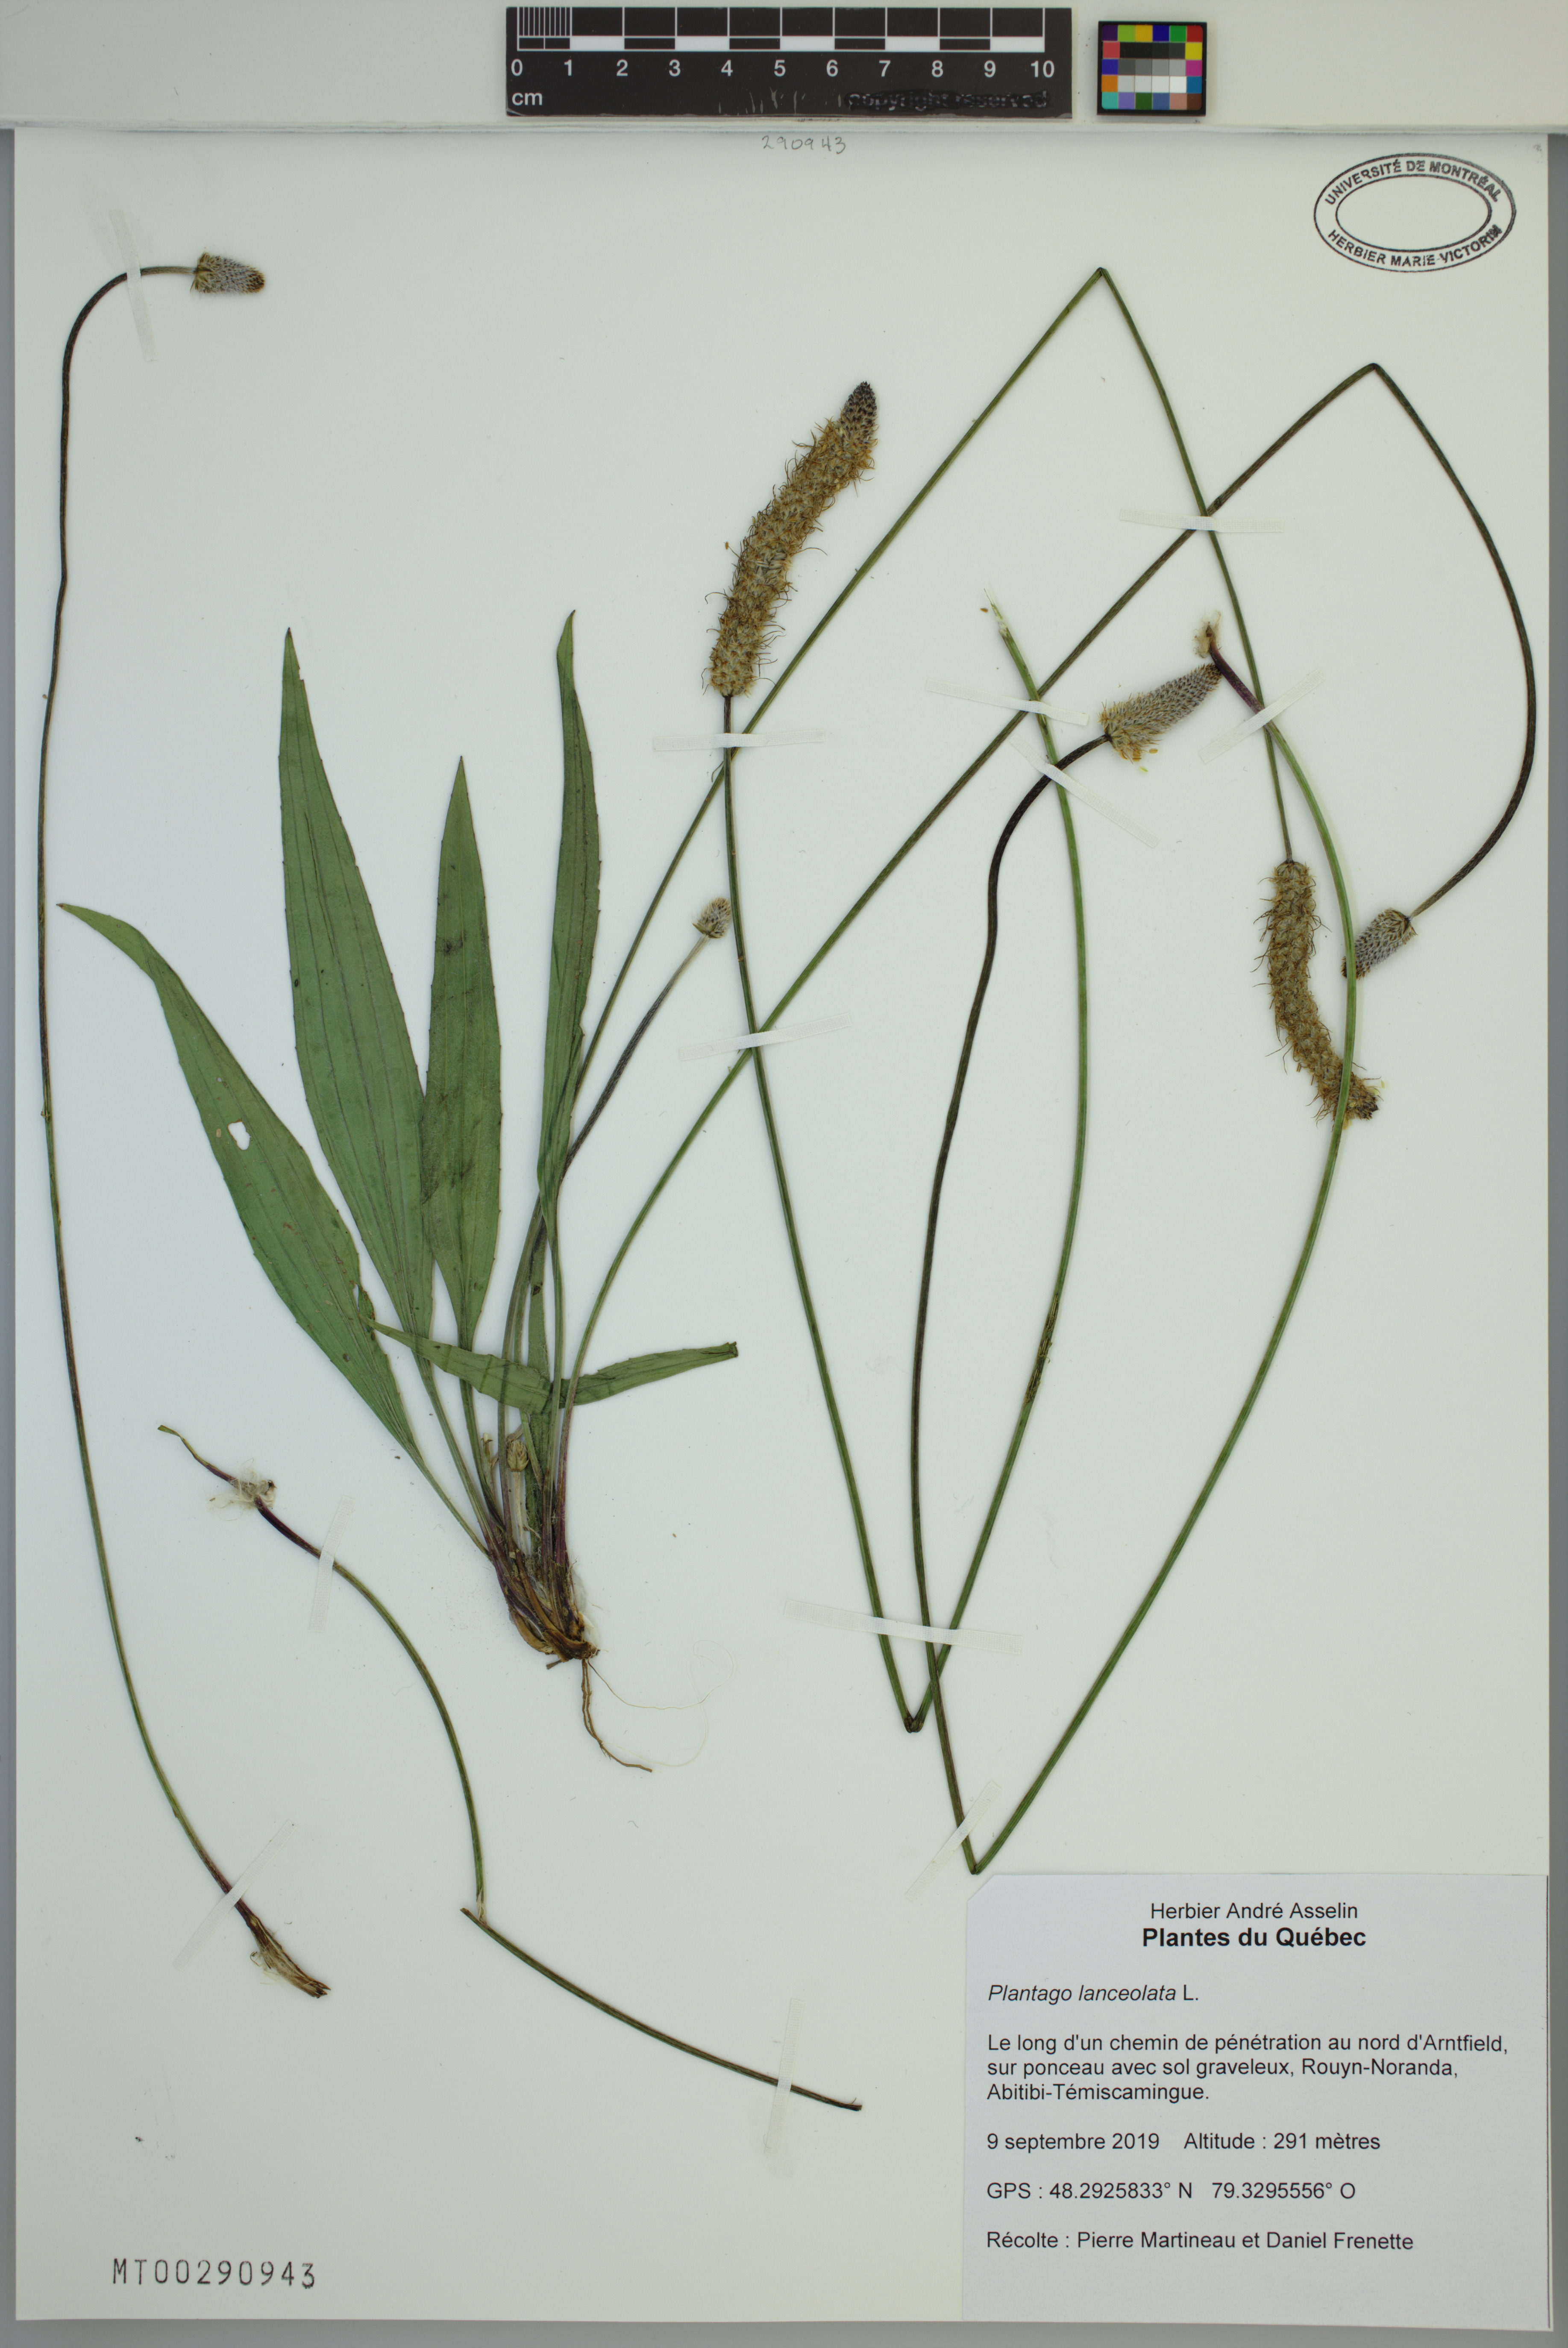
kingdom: Plantae
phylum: Tracheophyta
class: Magnoliopsida
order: Lamiales
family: Plantaginaceae
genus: Plantago
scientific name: Plantago lanceolata
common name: Ribwort plantain
